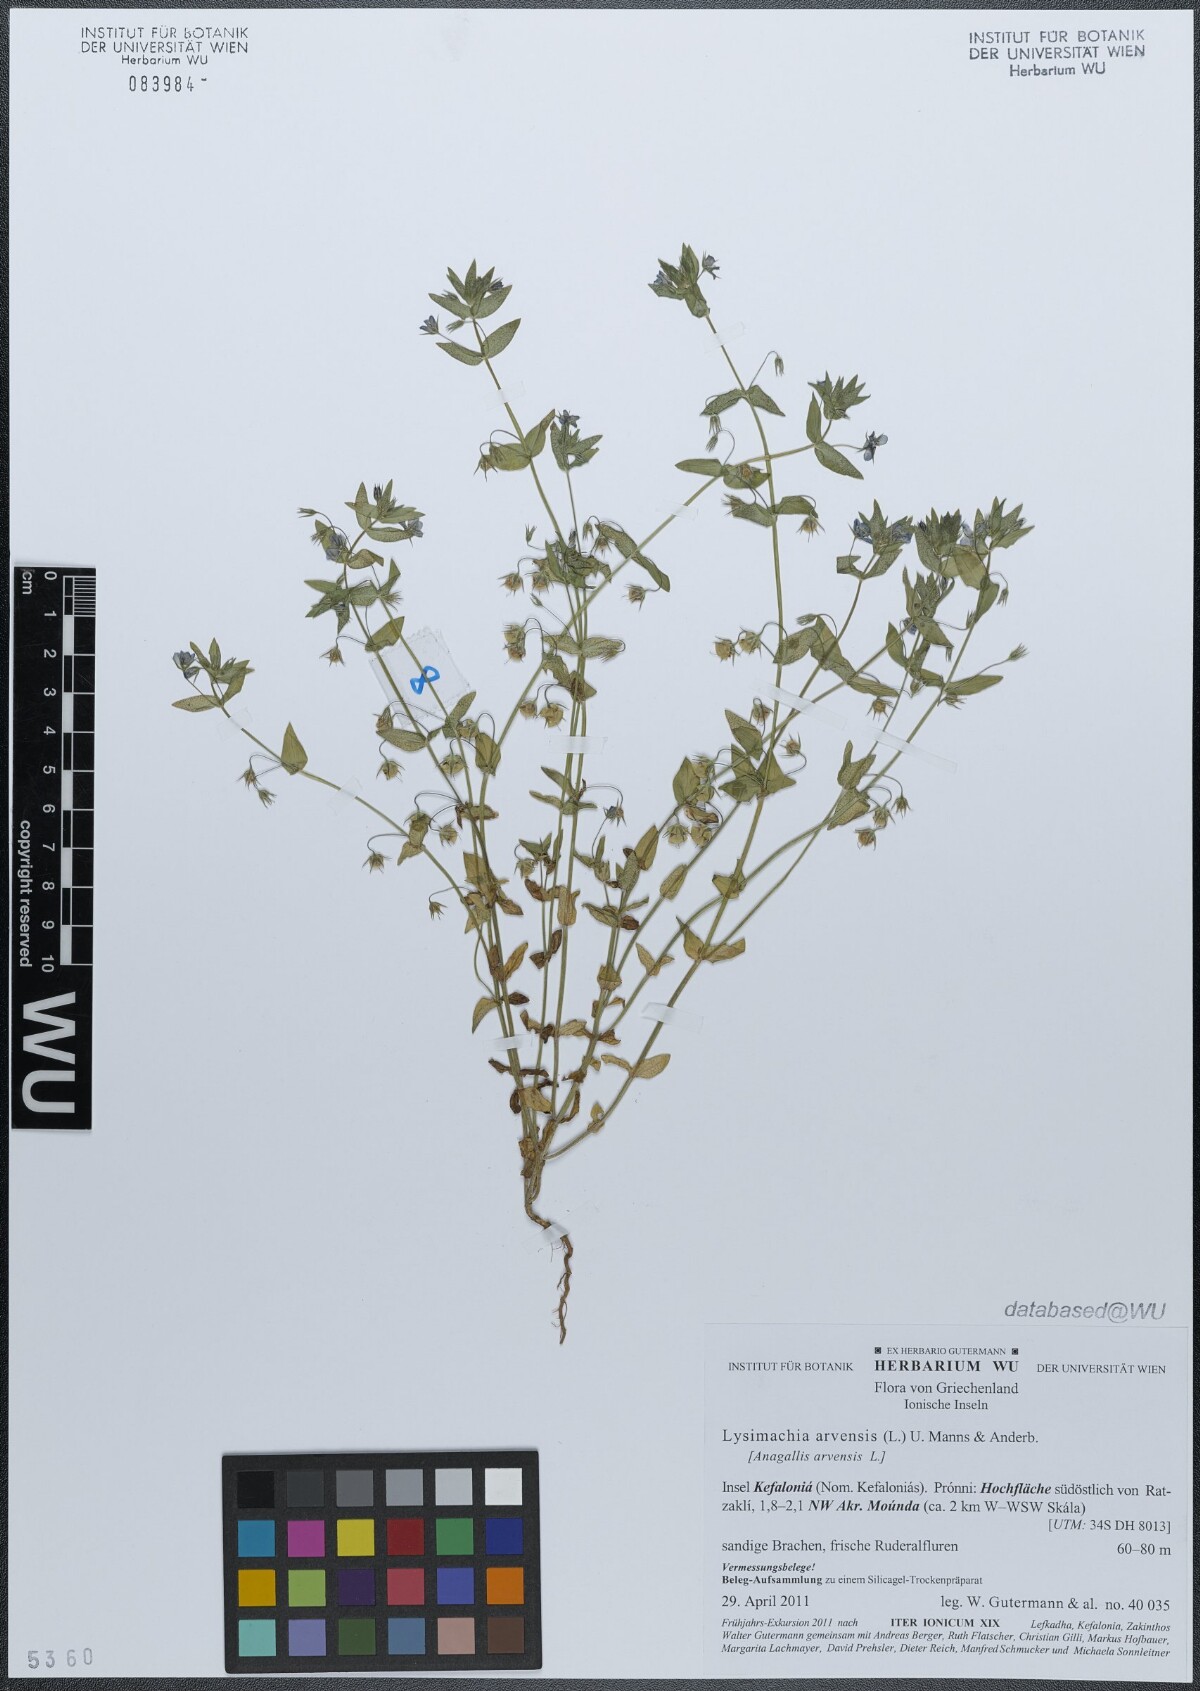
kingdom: Plantae
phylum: Tracheophyta
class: Magnoliopsida
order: Ericales
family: Primulaceae
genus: Lysimachia
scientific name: Lysimachia arvensis
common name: Scarlet pimpernel
